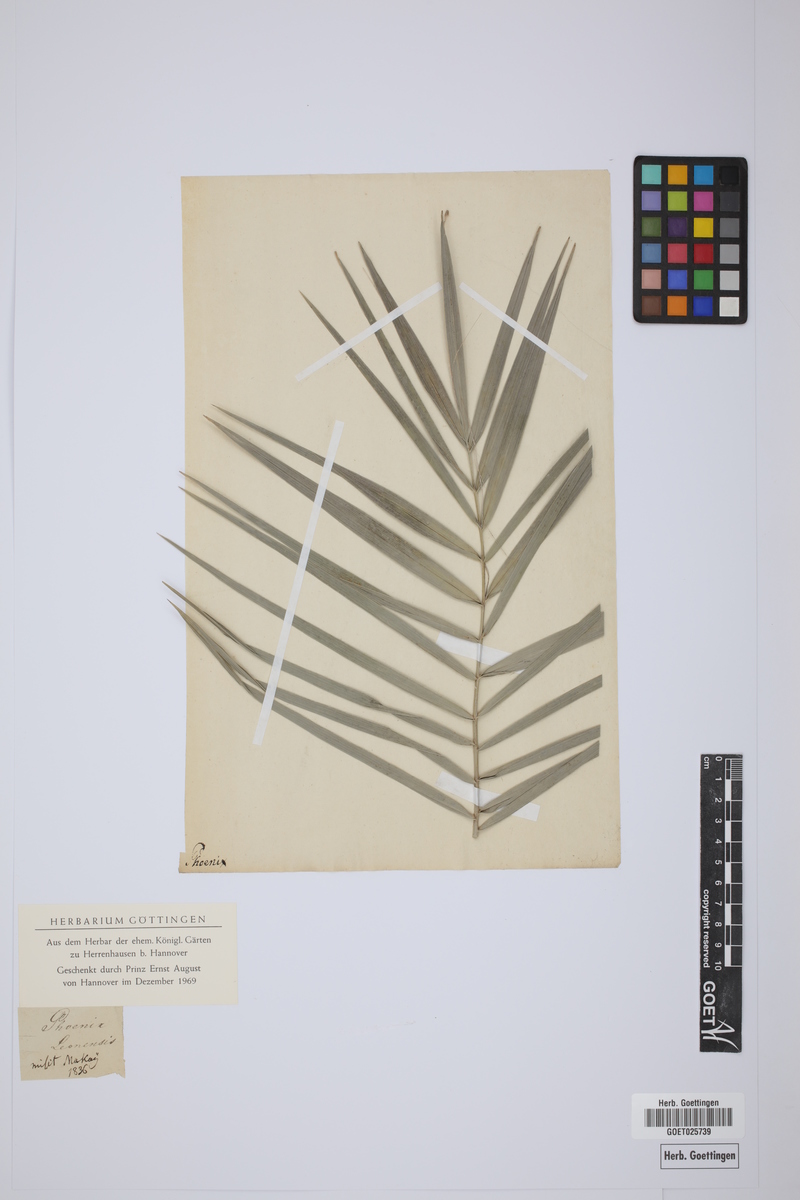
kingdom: Plantae
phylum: Tracheophyta
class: Liliopsida
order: Arecales
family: Arecaceae
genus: Phoenix
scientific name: Phoenix reclinata
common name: Senegal date palm
